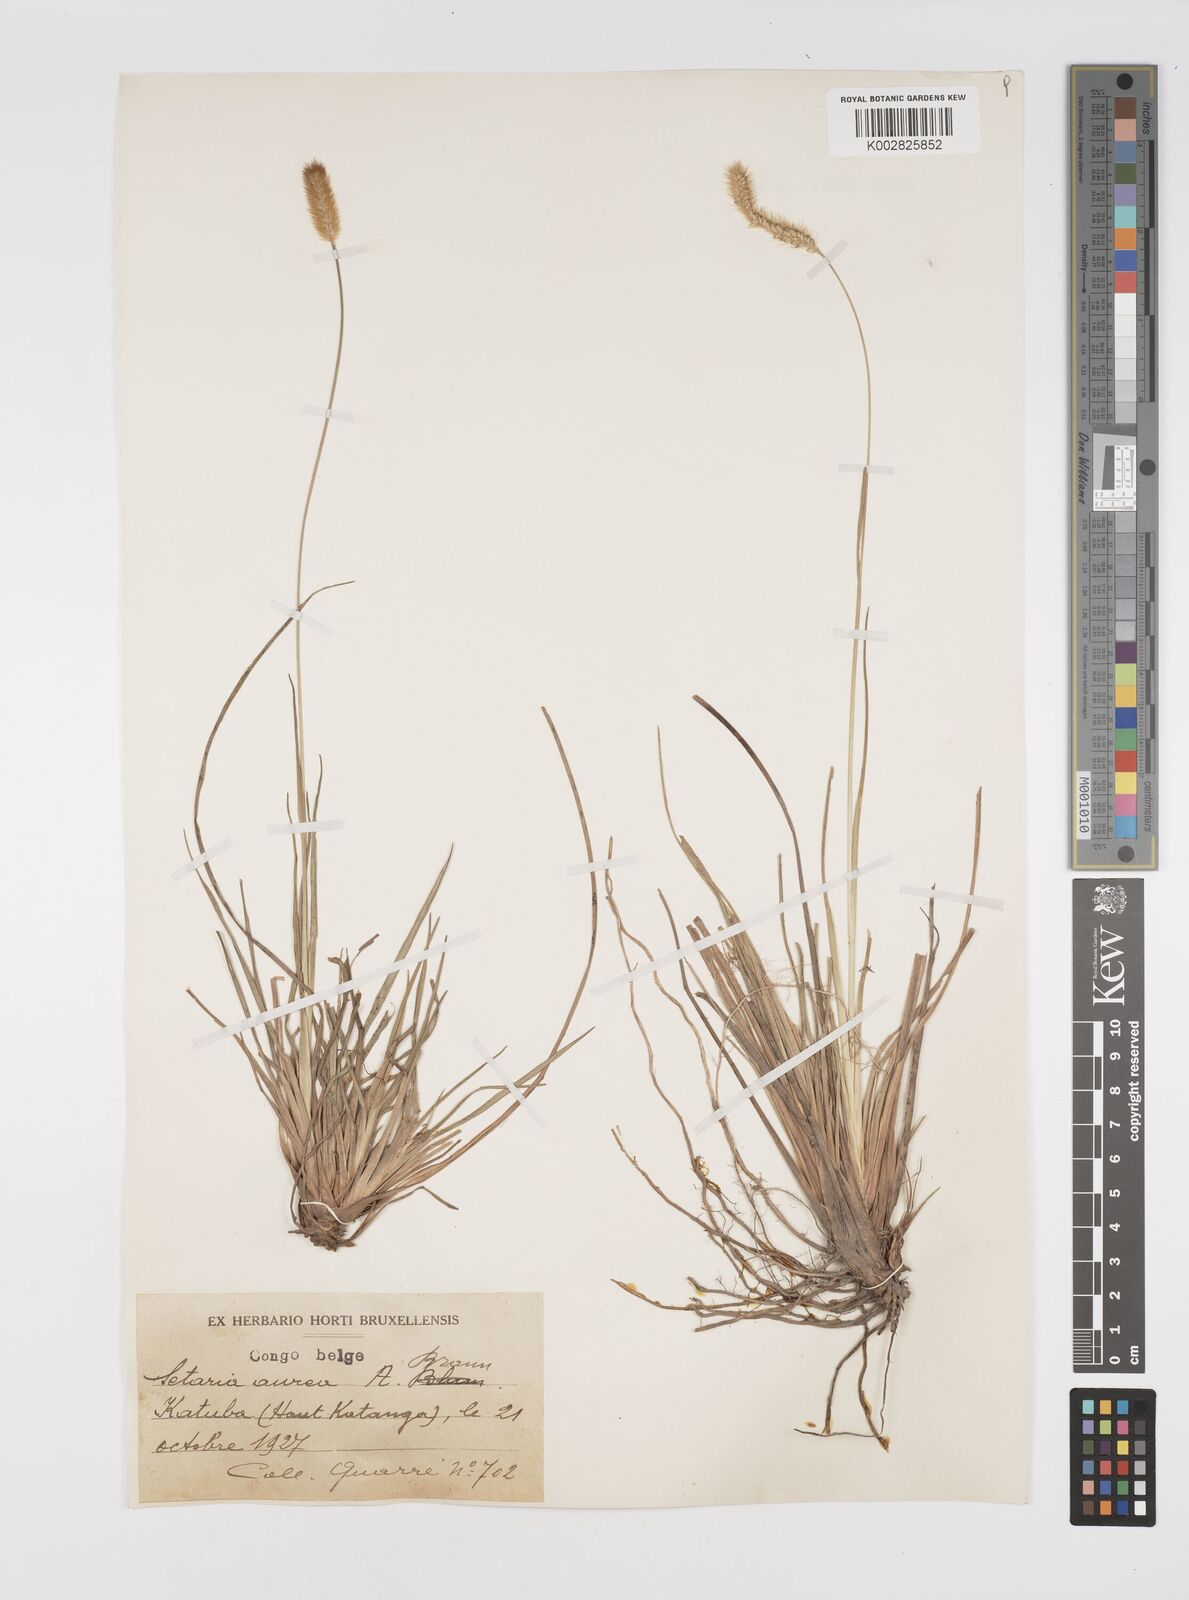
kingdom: Plantae
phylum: Tracheophyta
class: Liliopsida
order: Poales
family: Poaceae
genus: Setaria
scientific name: Setaria sphacelata
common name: African bristlegrass
